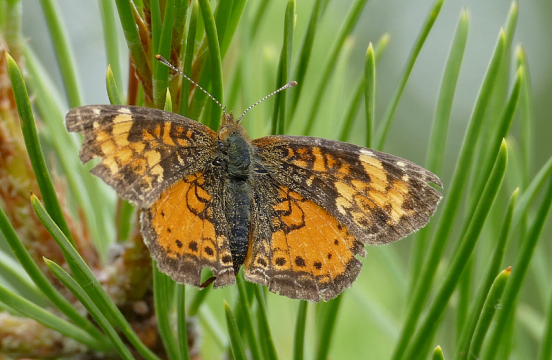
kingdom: Animalia
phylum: Arthropoda
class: Insecta
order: Lepidoptera
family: Nymphalidae
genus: Phyciodes
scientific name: Phyciodes tharos
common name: Northern Crescent
